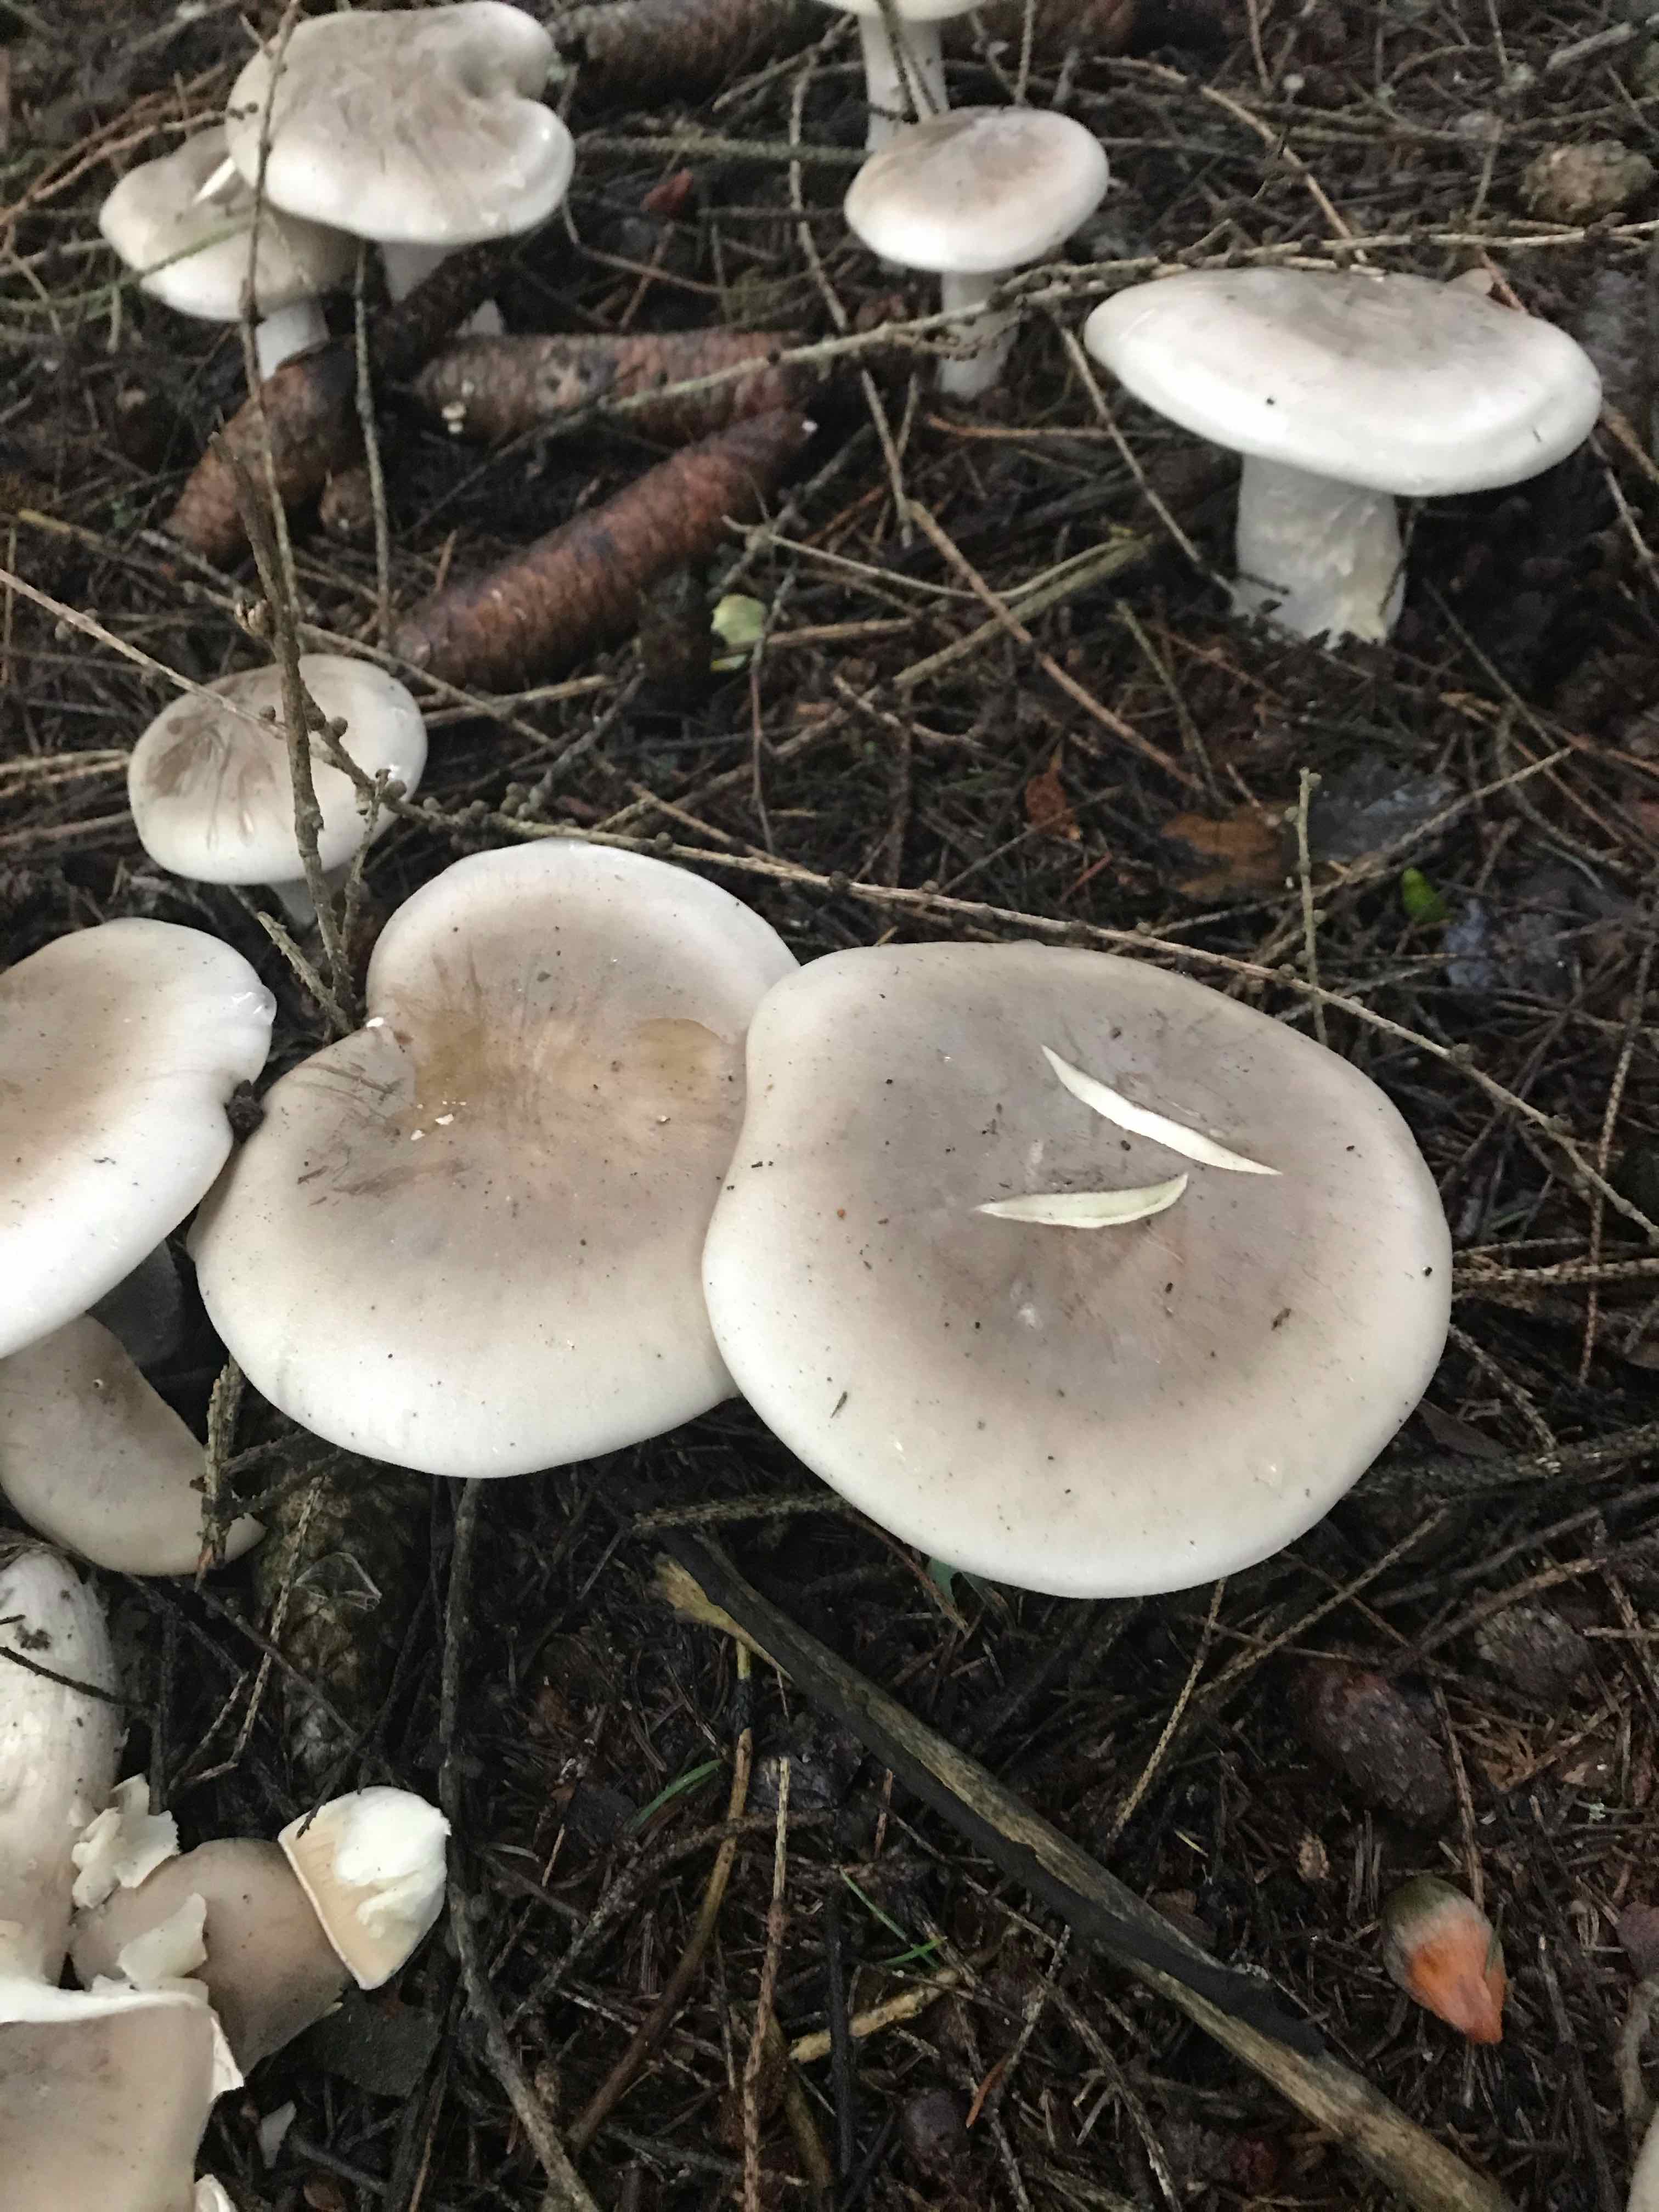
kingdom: Fungi
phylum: Basidiomycota
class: Agaricomycetes
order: Agaricales
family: Tricholomataceae
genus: Clitocybe
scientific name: Clitocybe nebularis
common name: tåge-tragthat
